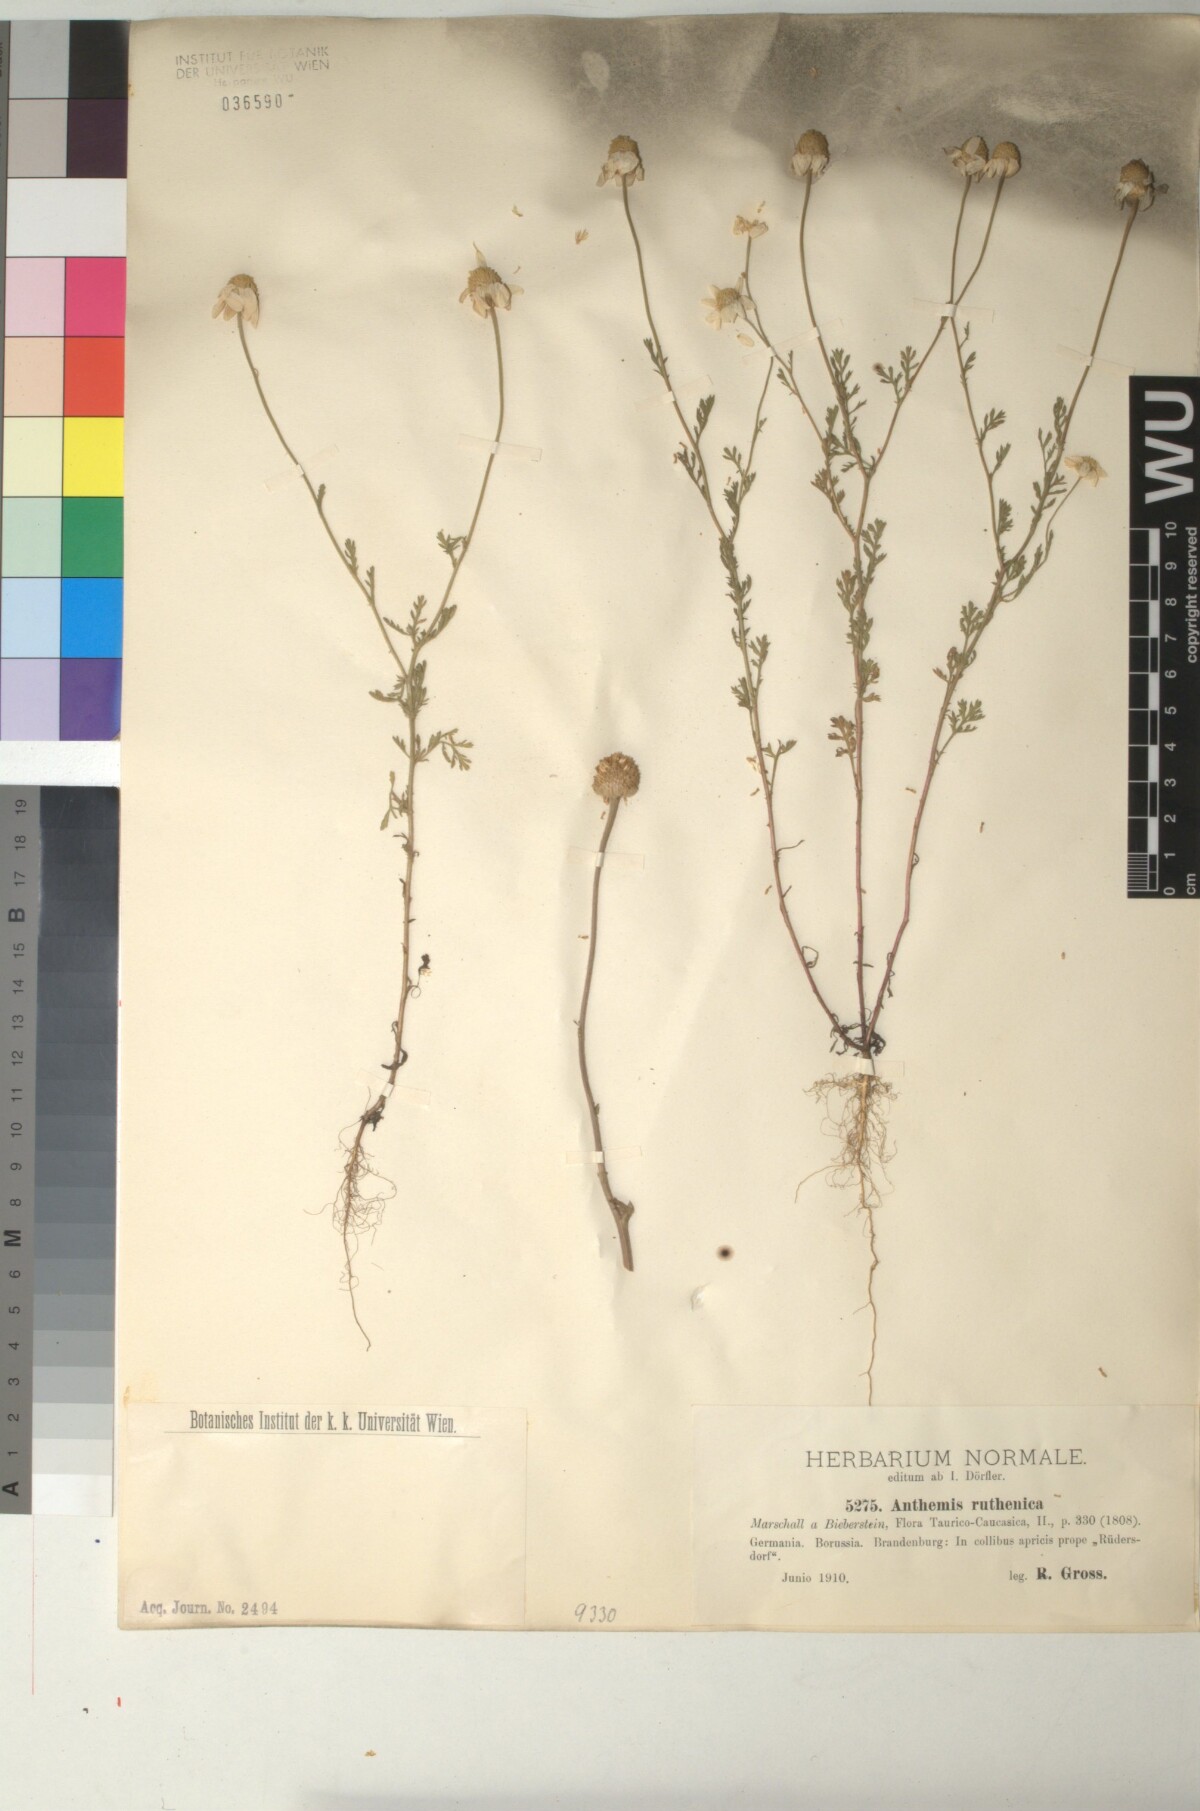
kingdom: Plantae
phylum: Tracheophyta
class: Magnoliopsida
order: Asterales
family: Asteraceae
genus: Anthemis
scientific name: Anthemis ruthenica
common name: Eastern chamomile
